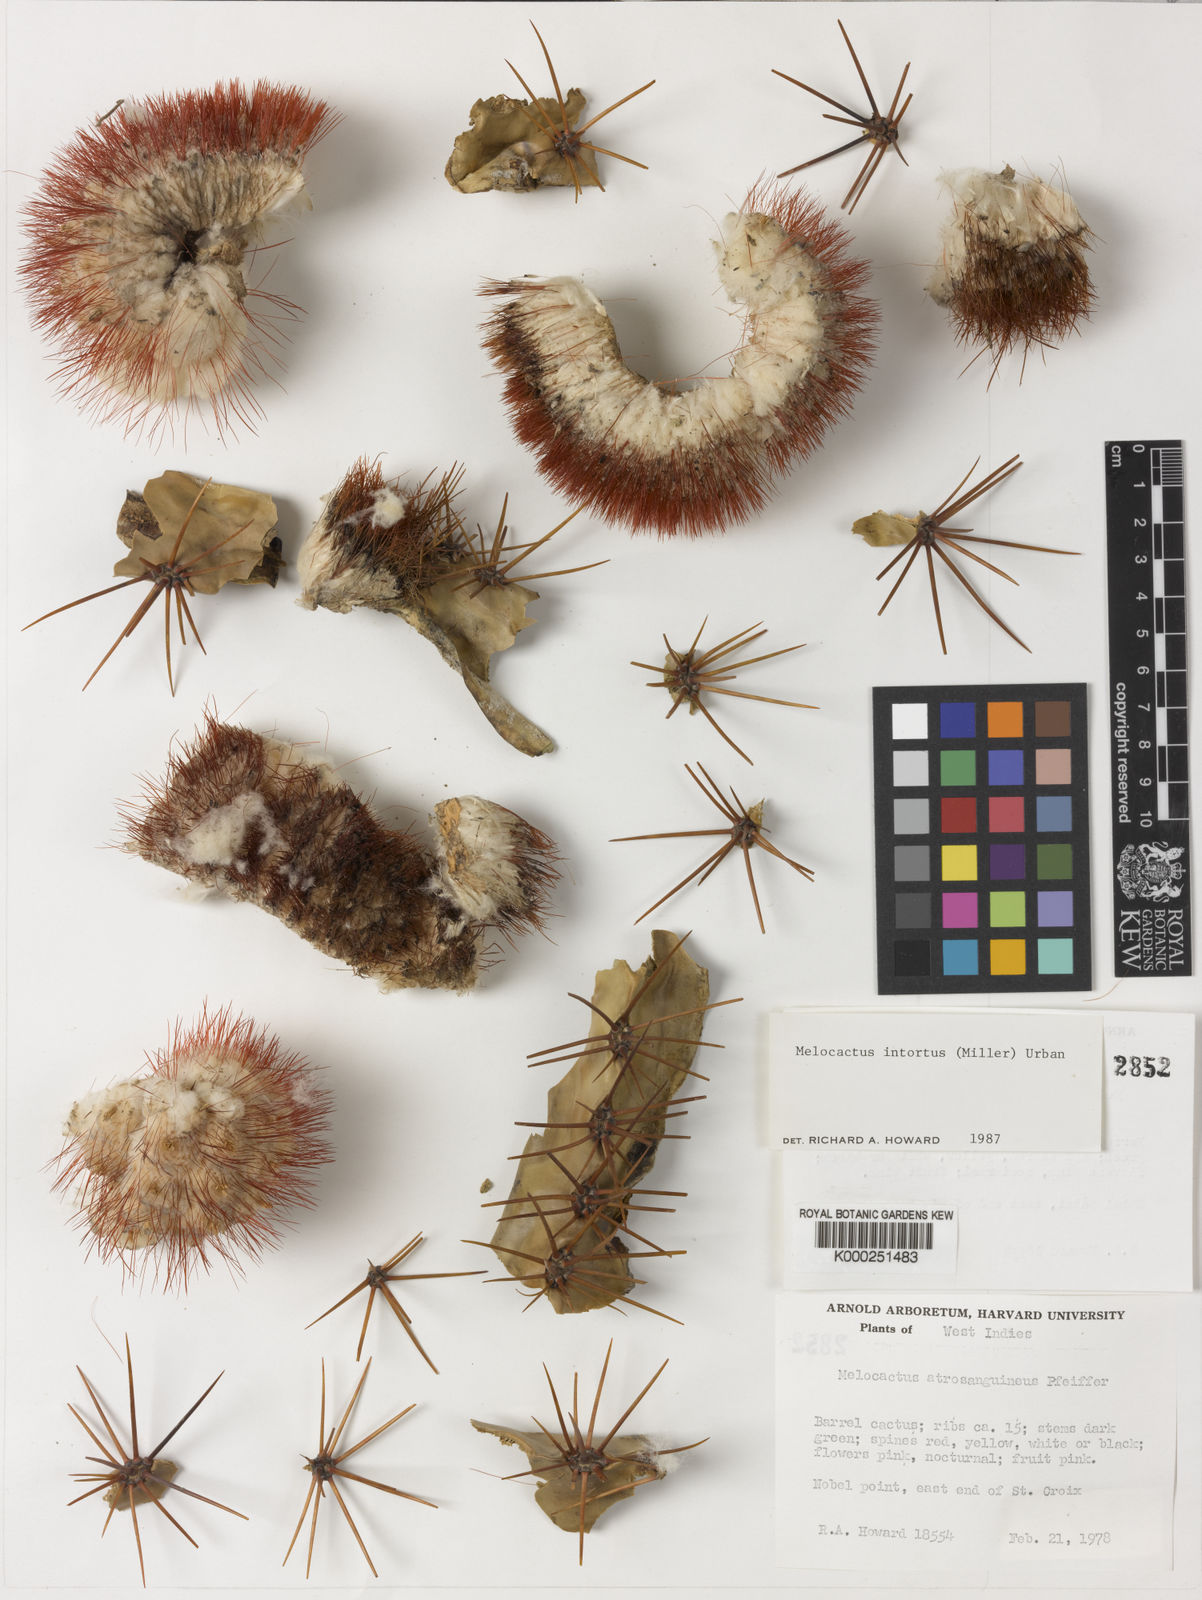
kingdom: Plantae
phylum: Tracheophyta
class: Magnoliopsida
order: Caryophyllales
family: Cactaceae
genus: Melocactus
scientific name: Melocactus intortus
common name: Barrel cactus
